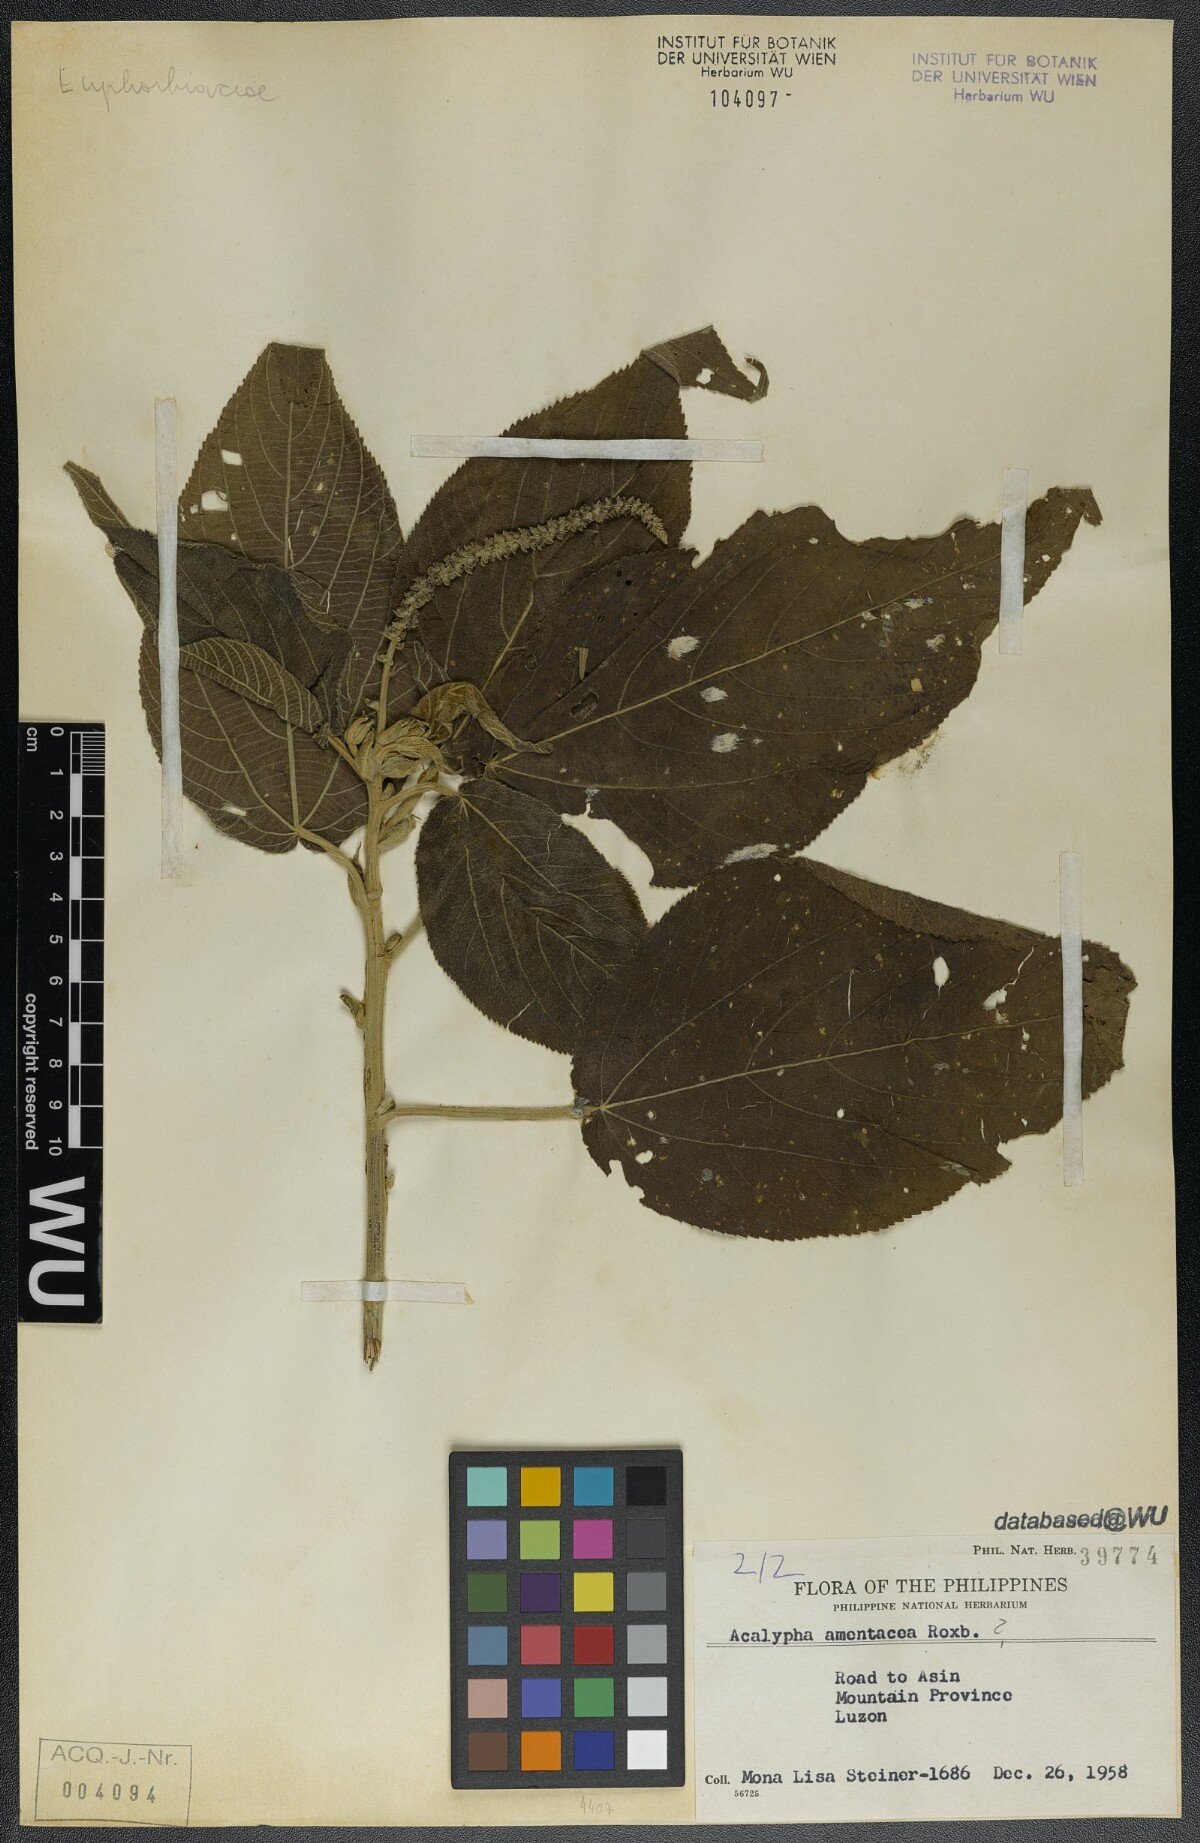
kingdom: Plantae
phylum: Tracheophyta
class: Magnoliopsida
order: Malpighiales
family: Euphorbiaceae
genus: Acalypha
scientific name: Acalypha amentacea
